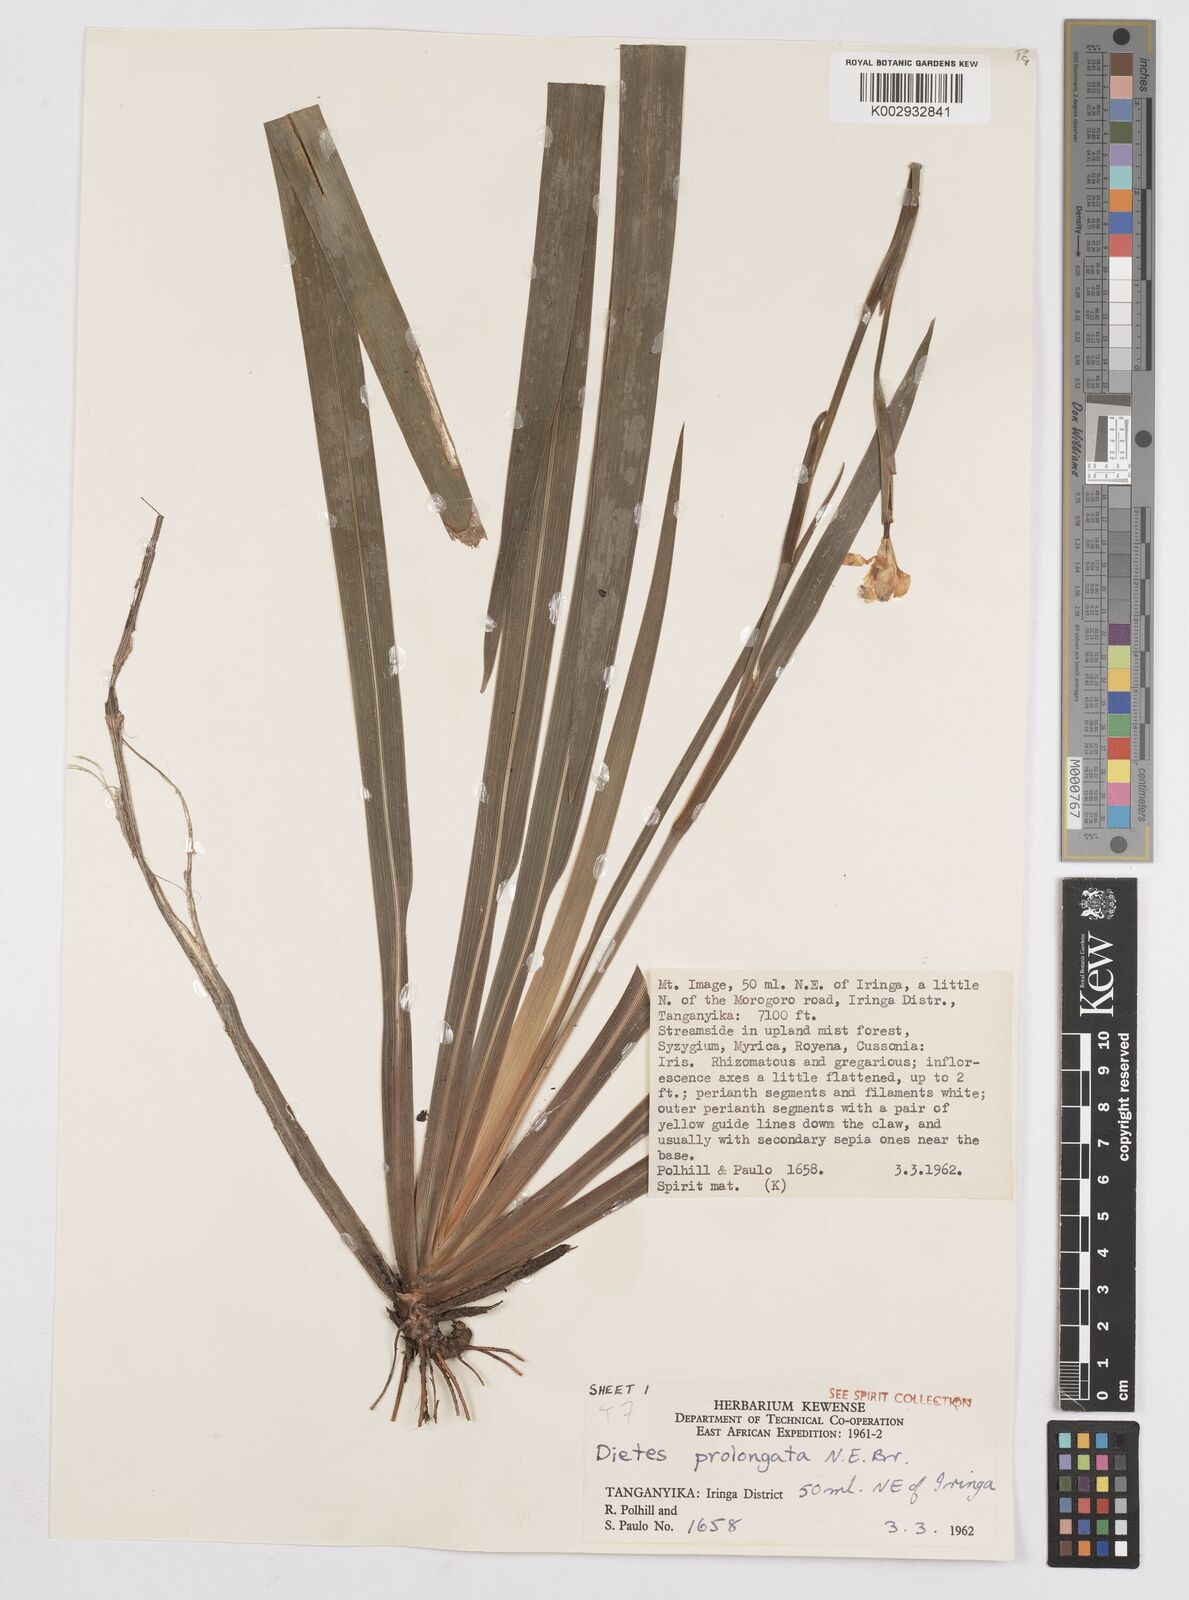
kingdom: Plantae
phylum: Tracheophyta
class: Liliopsida
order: Asparagales
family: Iridaceae
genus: Dietes
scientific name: Dietes iridioides
